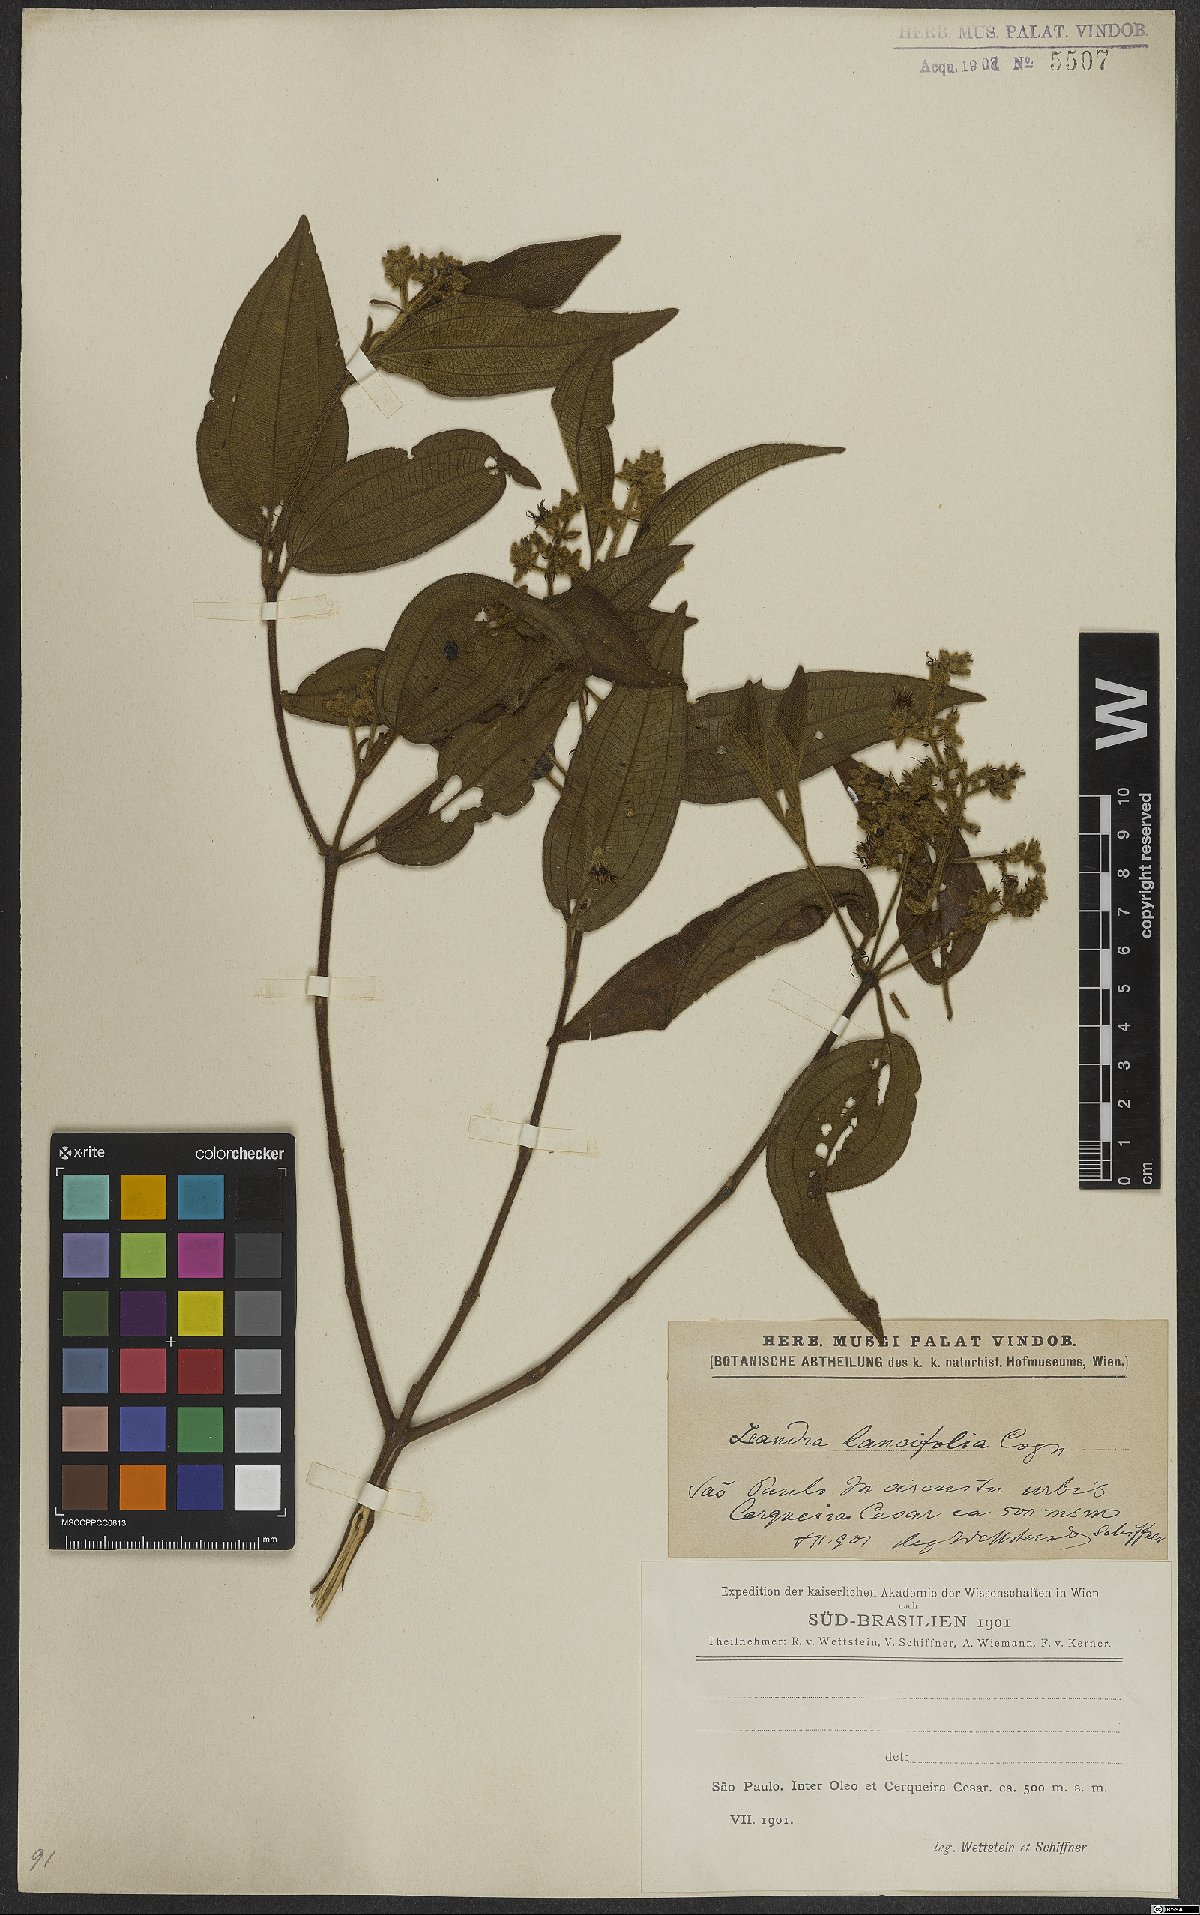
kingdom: Plantae
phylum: Tracheophyta
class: Magnoliopsida
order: Myrtales
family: Melastomataceae
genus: Miconia
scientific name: Miconia lealancifolia
